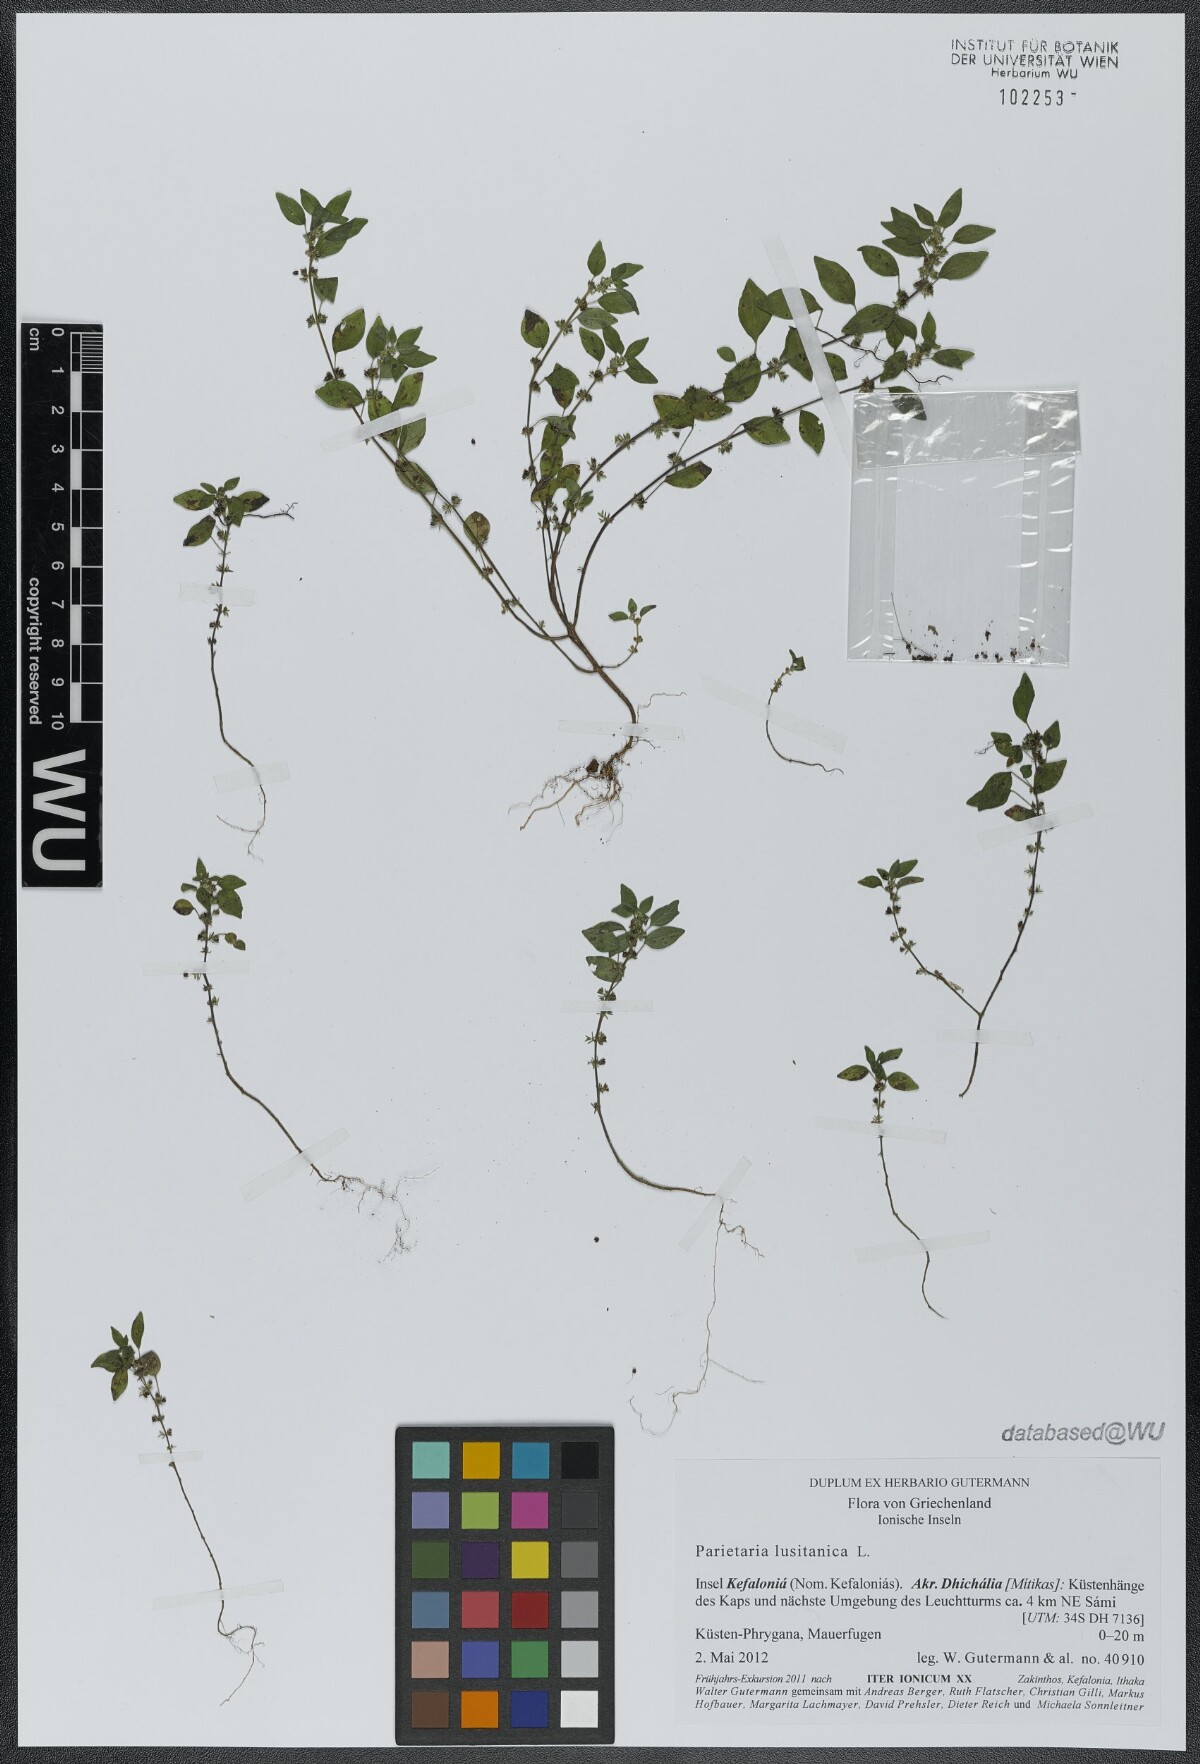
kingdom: Plantae
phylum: Tracheophyta
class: Magnoliopsida
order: Rosales
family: Urticaceae
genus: Parietaria
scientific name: Parietaria lusitanica
